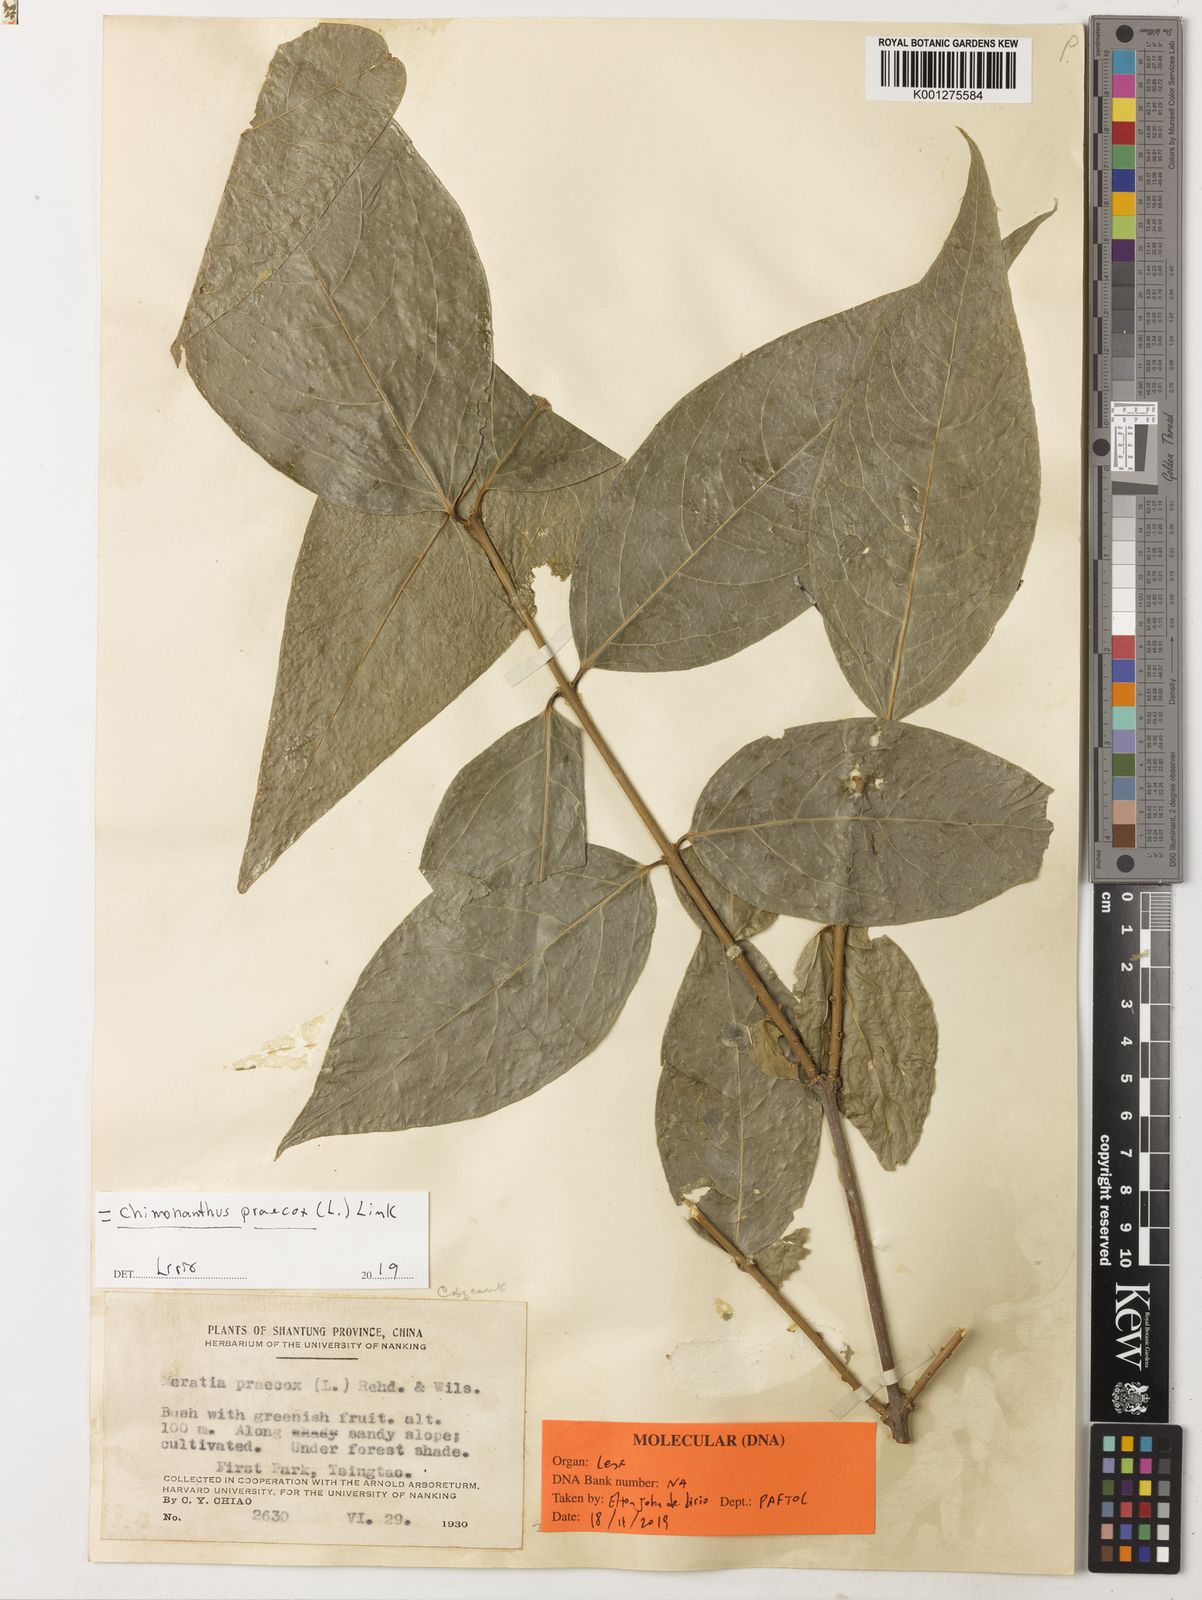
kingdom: Plantae
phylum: Tracheophyta
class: Magnoliopsida
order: Laurales
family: Calycanthaceae
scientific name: Calycanthaceae
